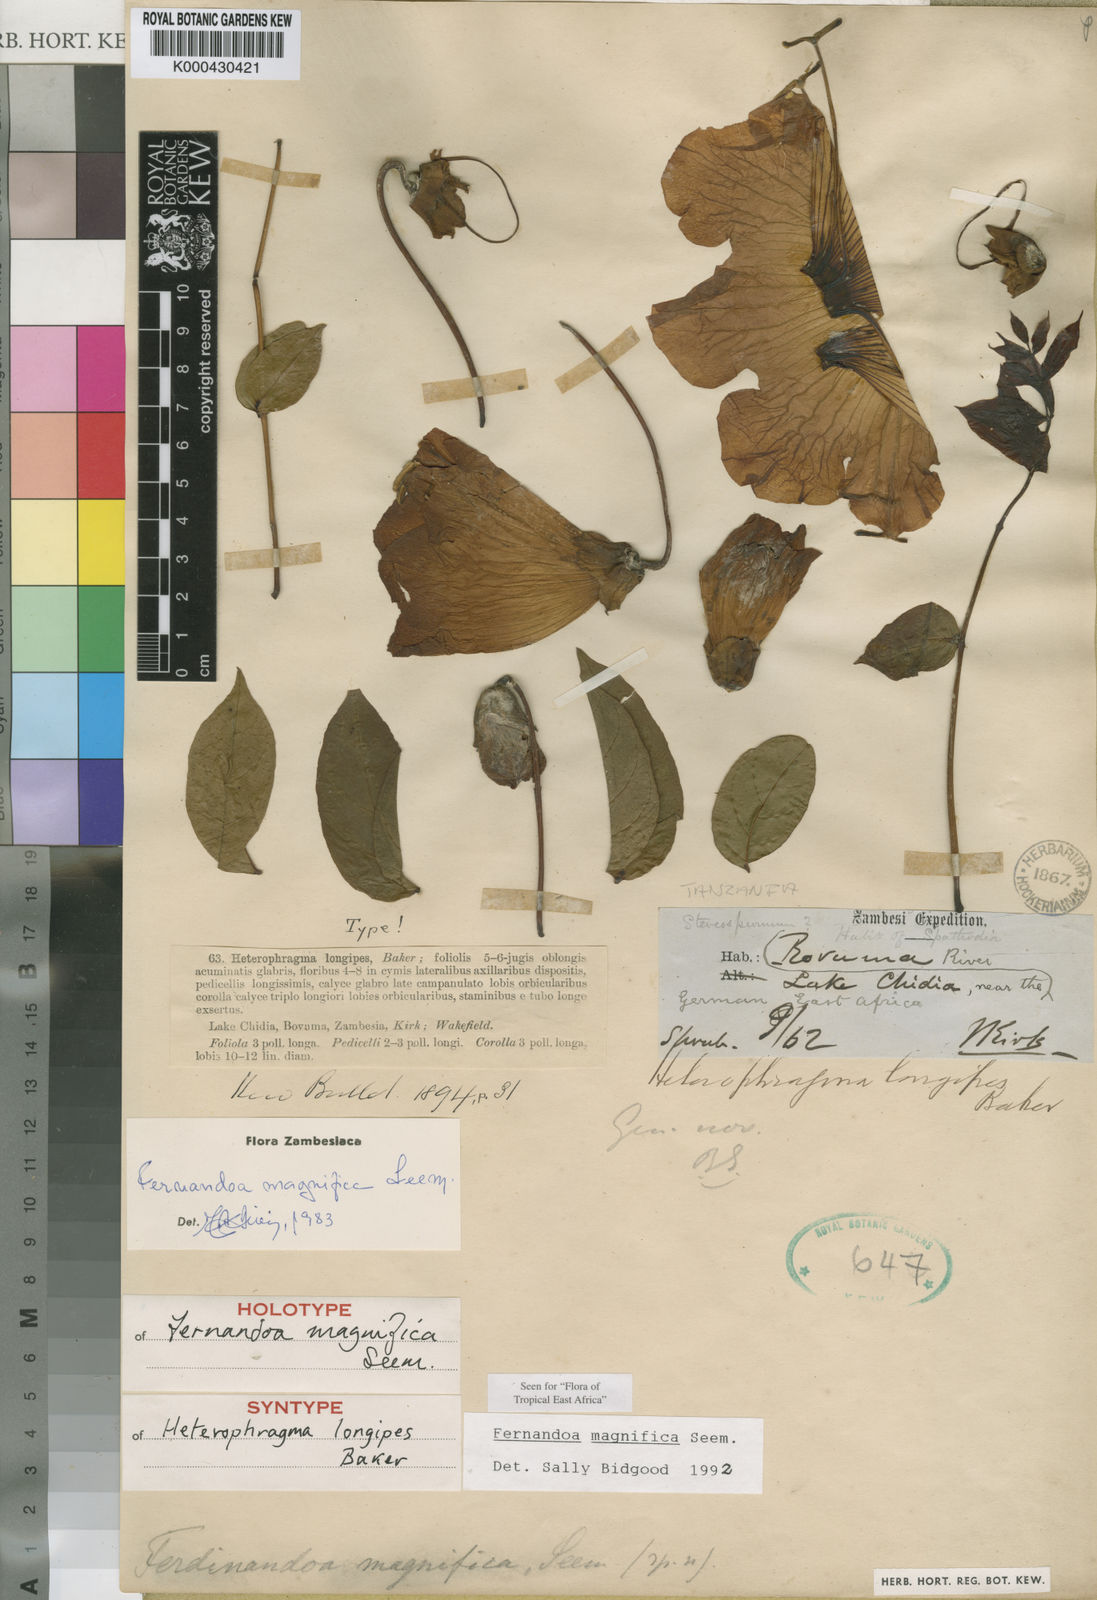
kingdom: Plantae
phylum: Tracheophyta
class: Magnoliopsida
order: Lamiales
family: Bignoniaceae
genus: Fernandoa
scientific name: Fernandoa magnifica
